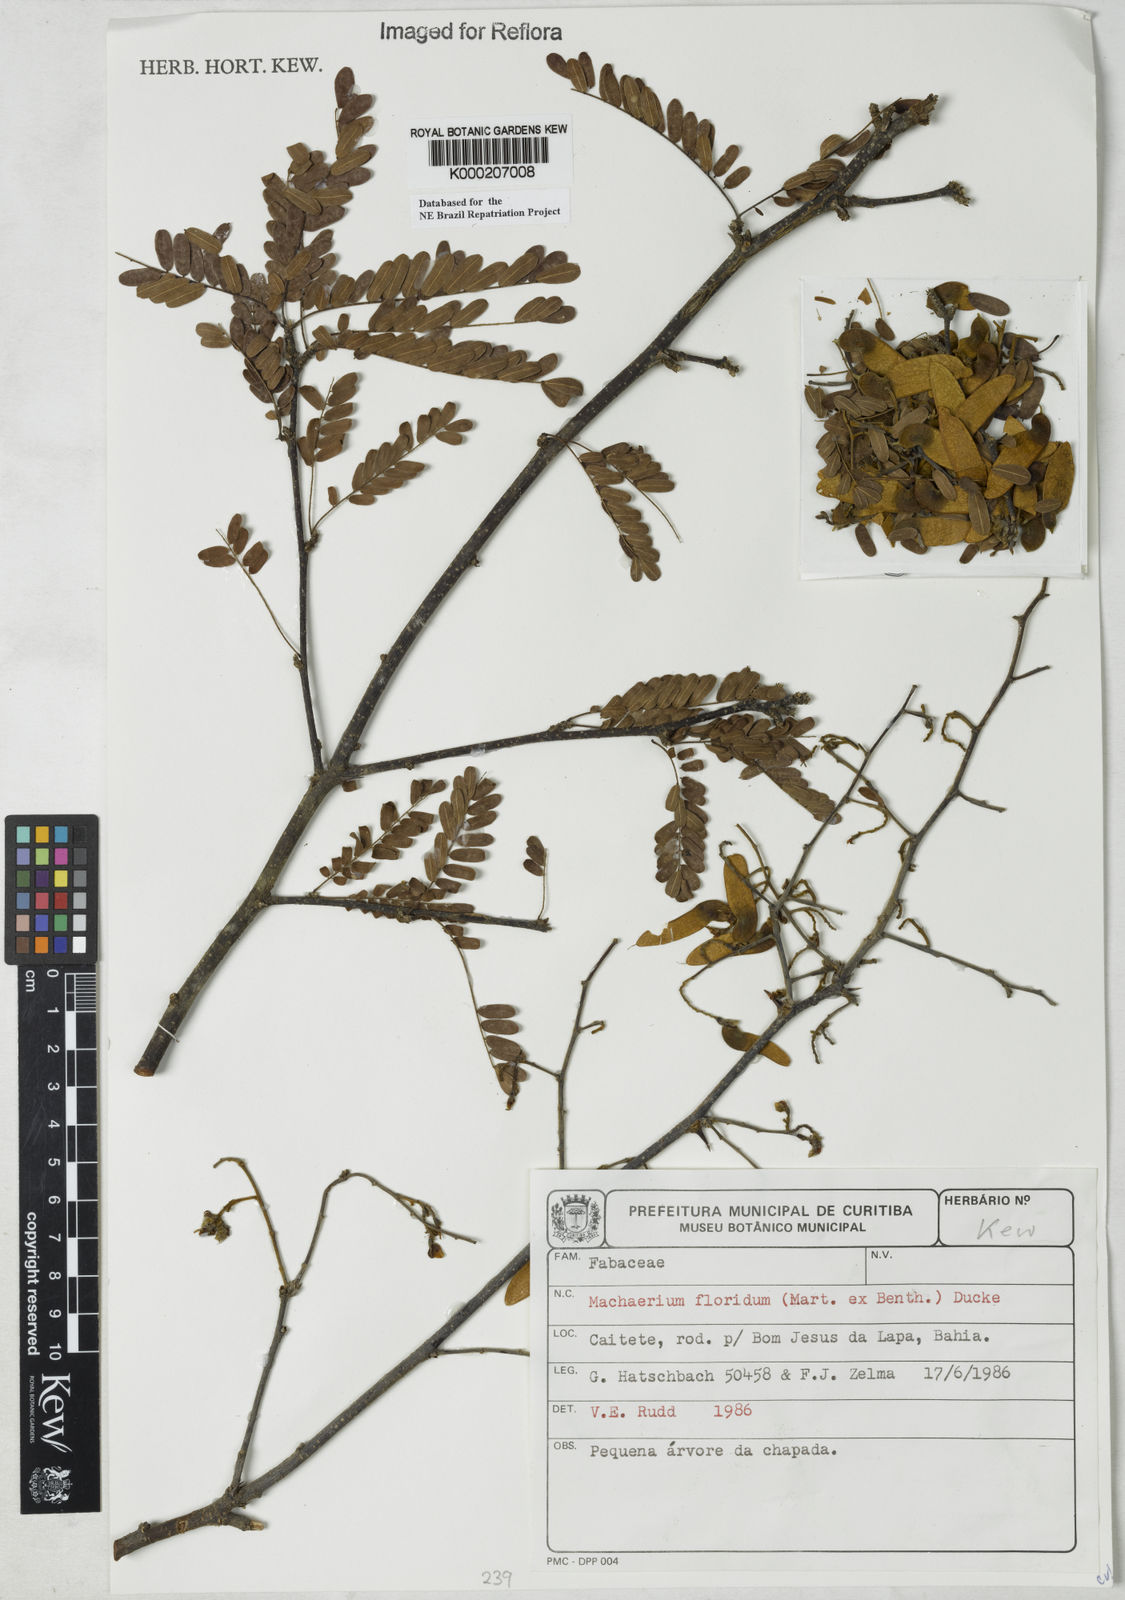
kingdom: Plantae
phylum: Tracheophyta
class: Magnoliopsida
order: Fabales
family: Fabaceae
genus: Machaerium
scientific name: Machaerium floridum
